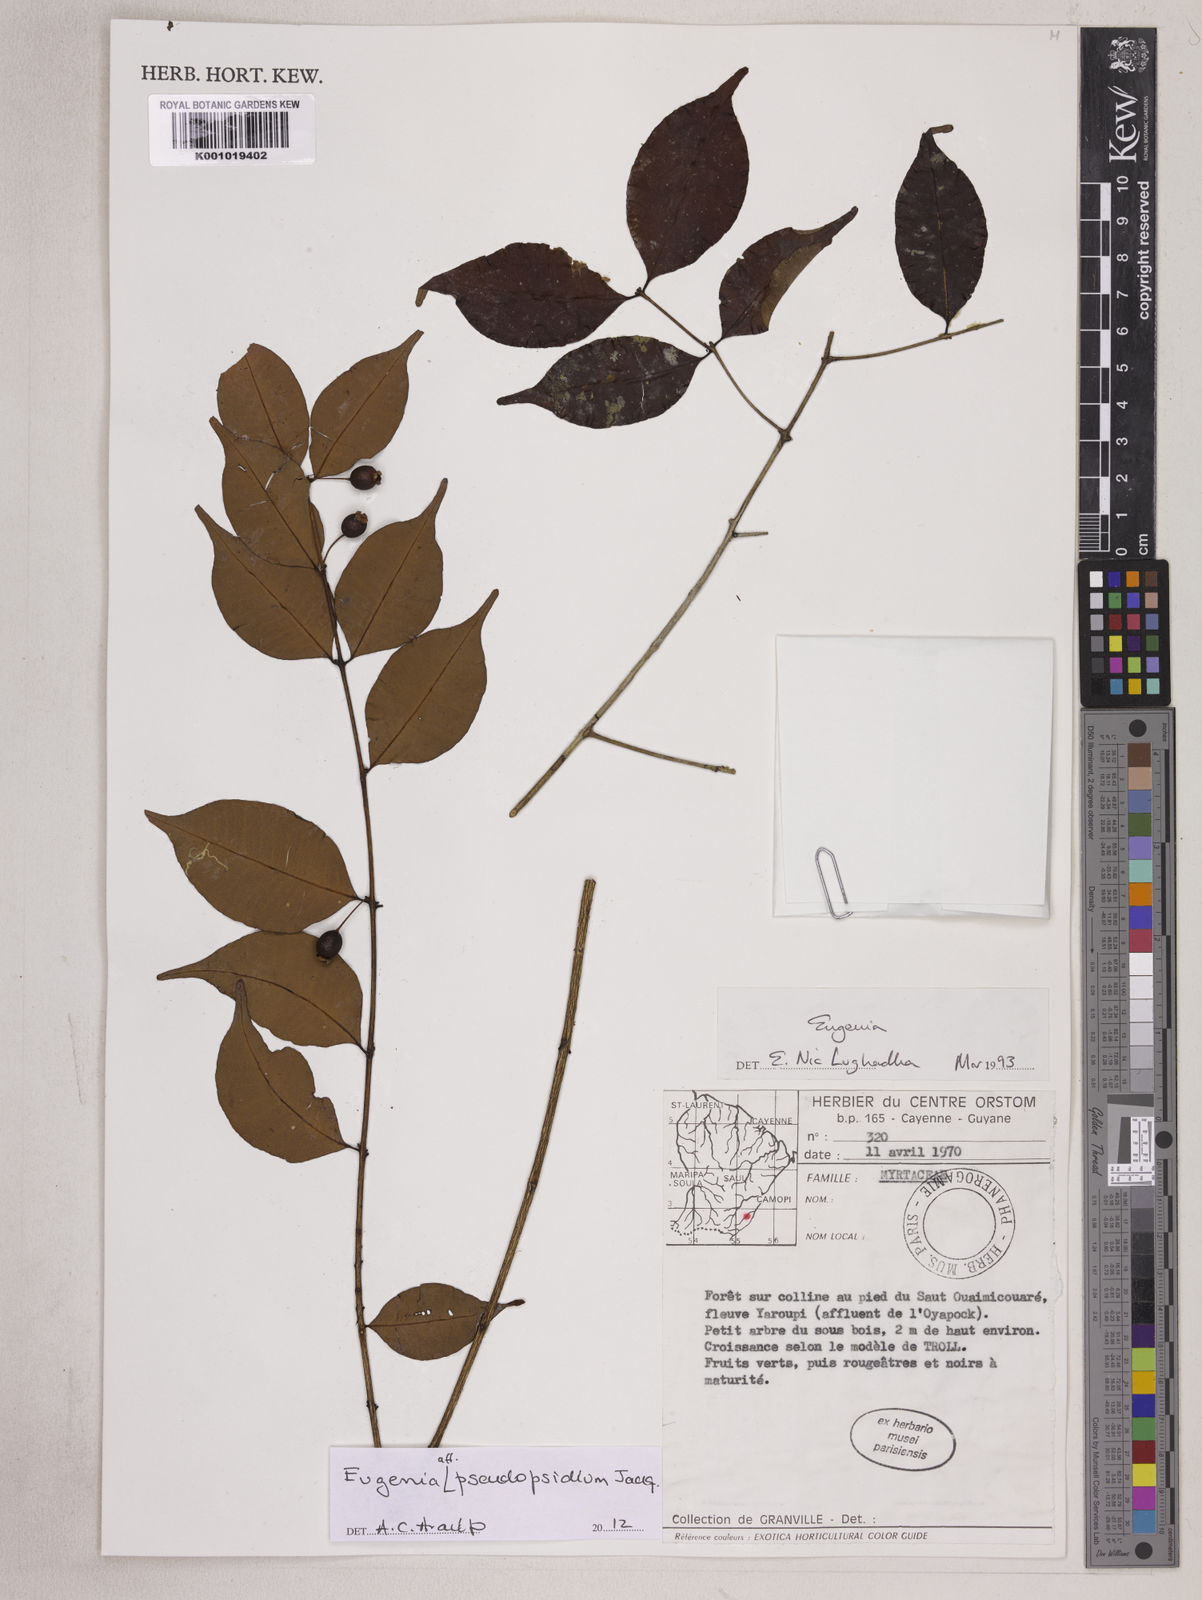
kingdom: Plantae
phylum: Tracheophyta
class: Magnoliopsida
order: Myrtales
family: Myrtaceae
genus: Eugenia
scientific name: Eugenia pseudopsidium
